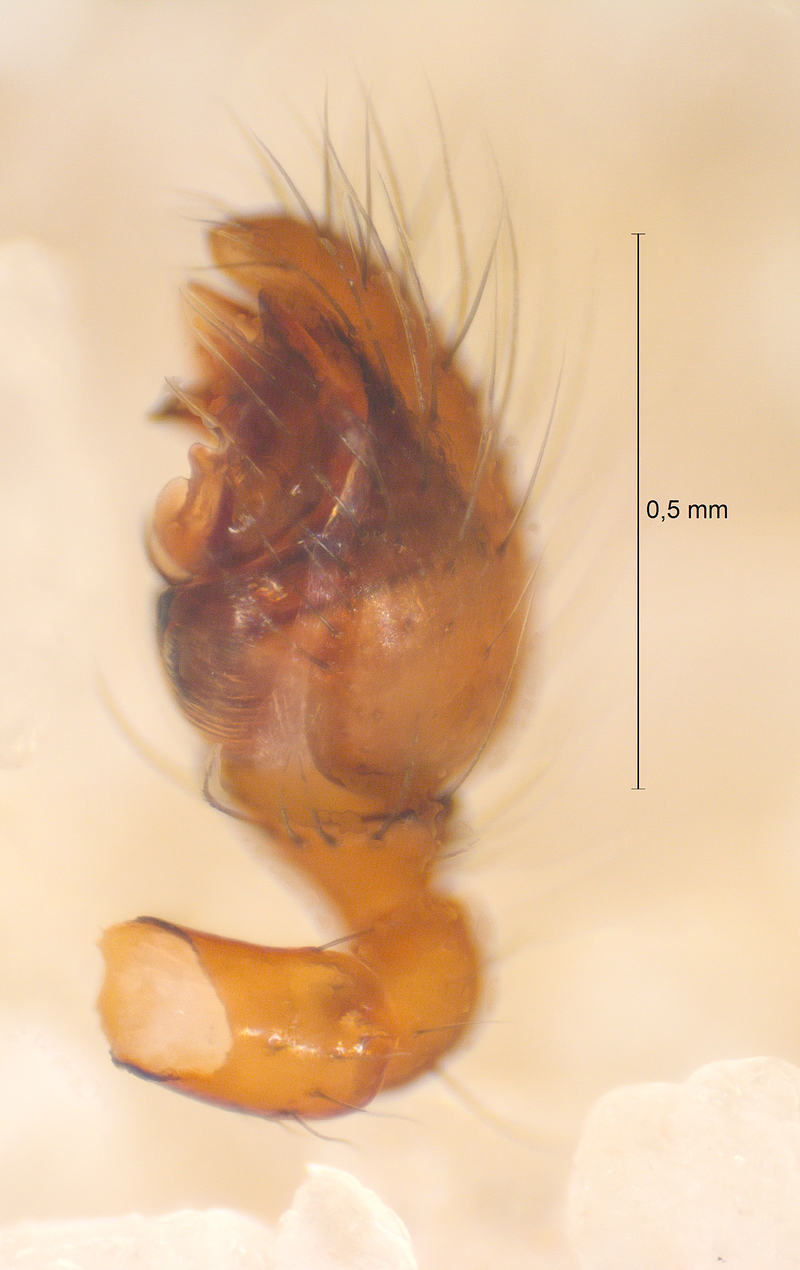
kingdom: Animalia
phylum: Arthropoda
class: Arachnida
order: Araneae
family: Theridiidae
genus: Robertus
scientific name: Robertus lividus
